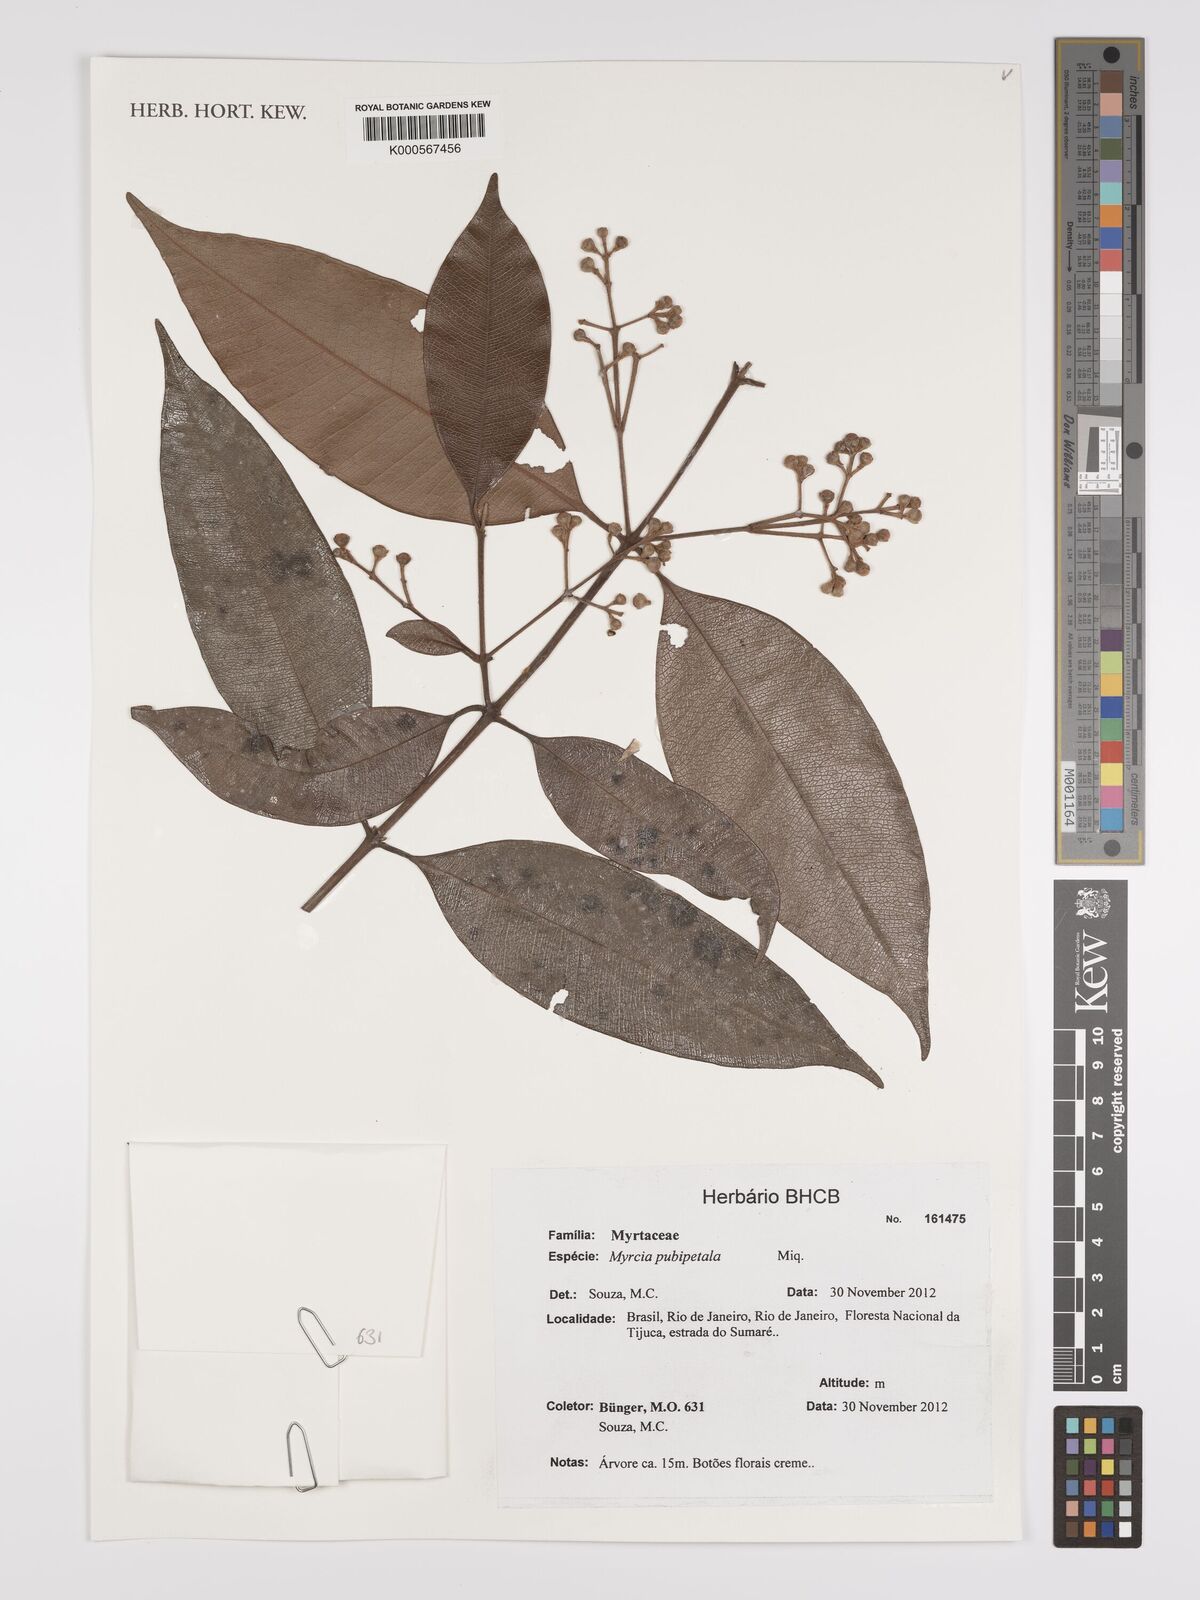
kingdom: Plantae
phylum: Tracheophyta
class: Magnoliopsida
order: Myrtales
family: Myrtaceae
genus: Myrcia
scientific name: Myrcia pubipetala
